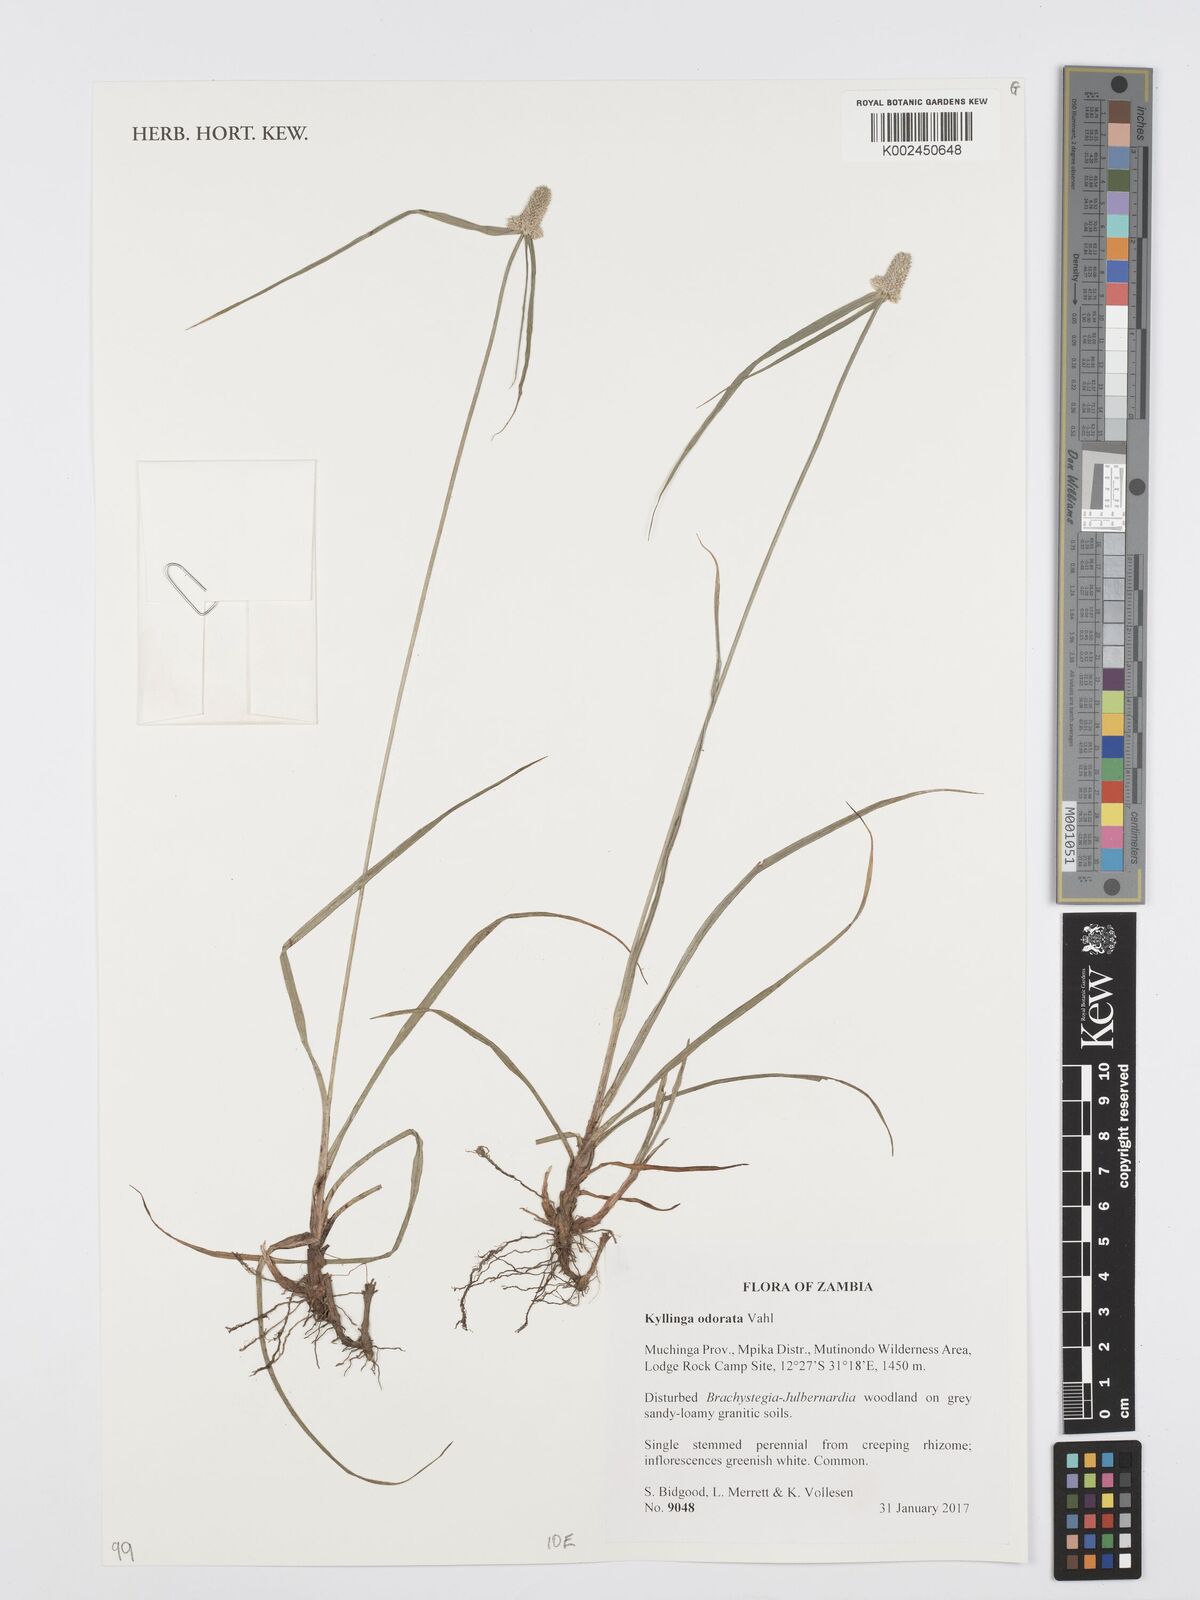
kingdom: Plantae
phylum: Tracheophyta
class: Liliopsida
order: Poales
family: Cyperaceae
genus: Cyperus
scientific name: Cyperus
